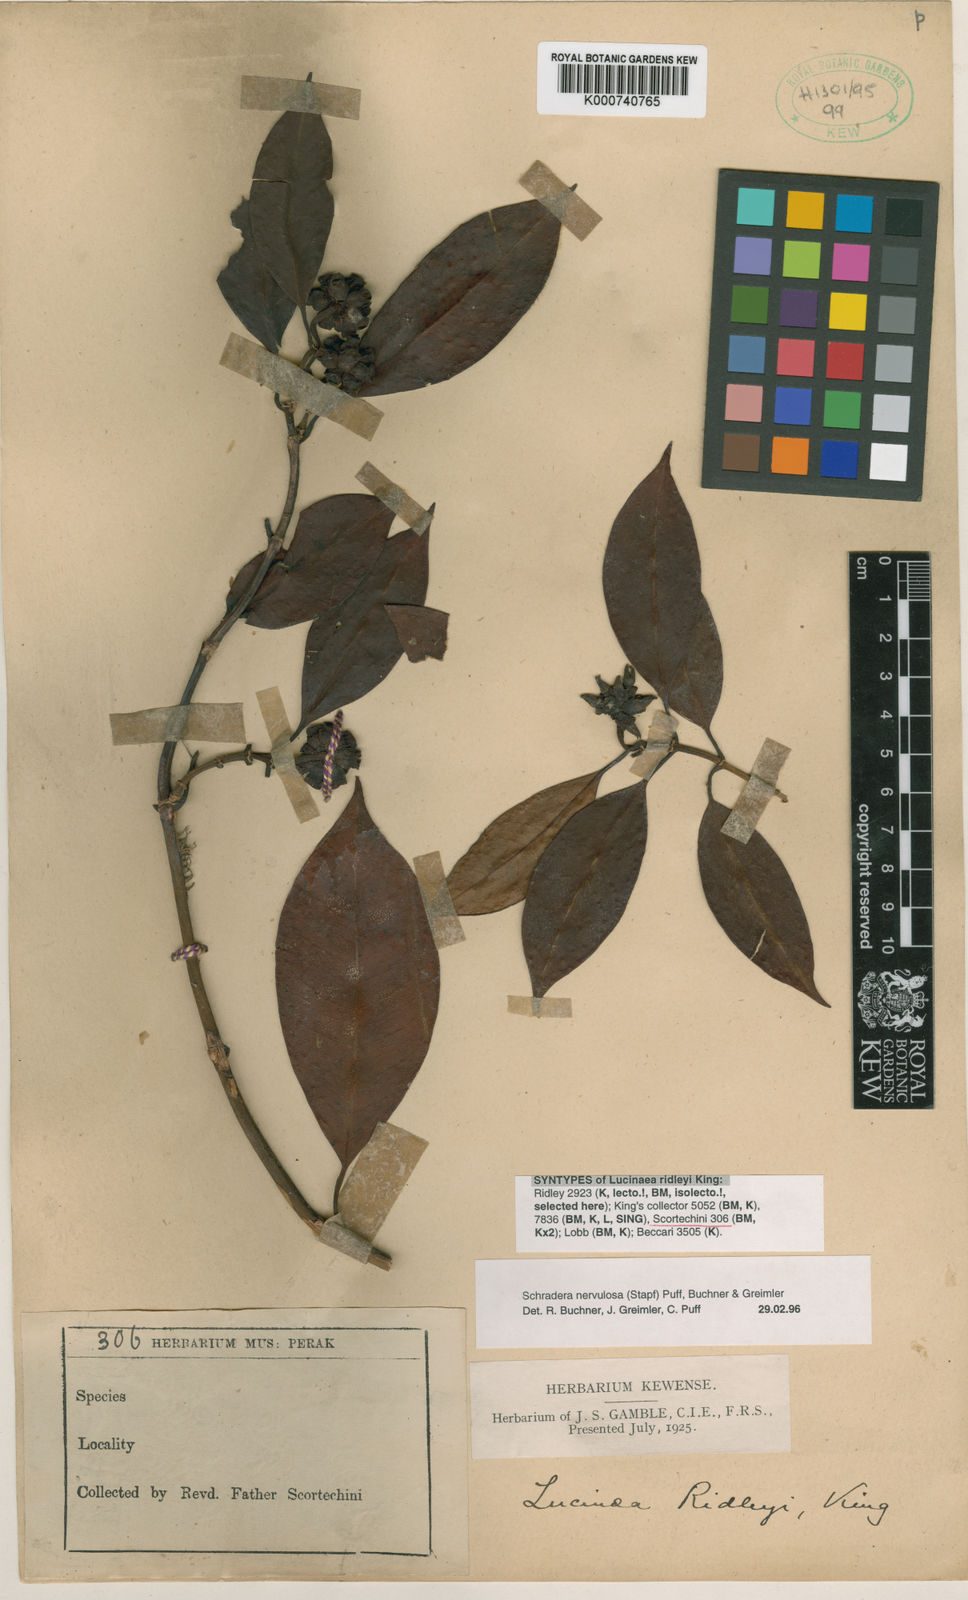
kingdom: Plantae
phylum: Tracheophyta
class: Magnoliopsida
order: Gentianales
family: Rubiaceae
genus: Schradera
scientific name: Schradera nervulosa
